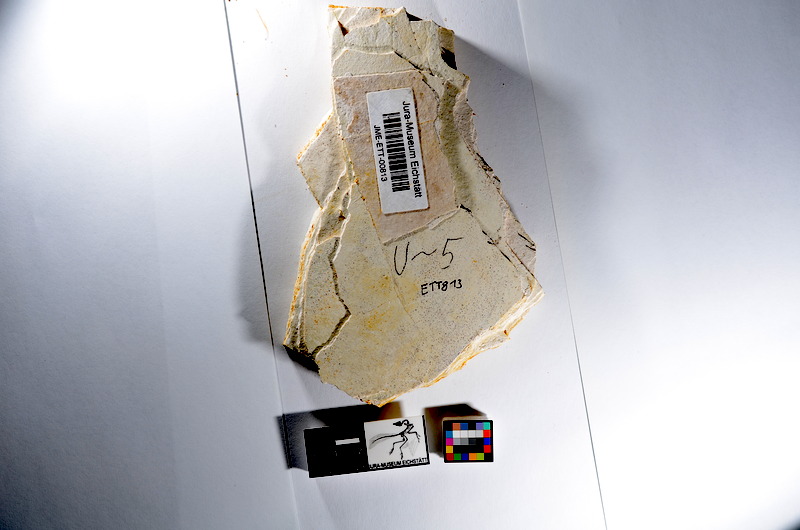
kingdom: Animalia
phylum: Chordata
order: Salmoniformes
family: Orthogonikleithridae
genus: Orthogonikleithrus
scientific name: Orthogonikleithrus hoelli
